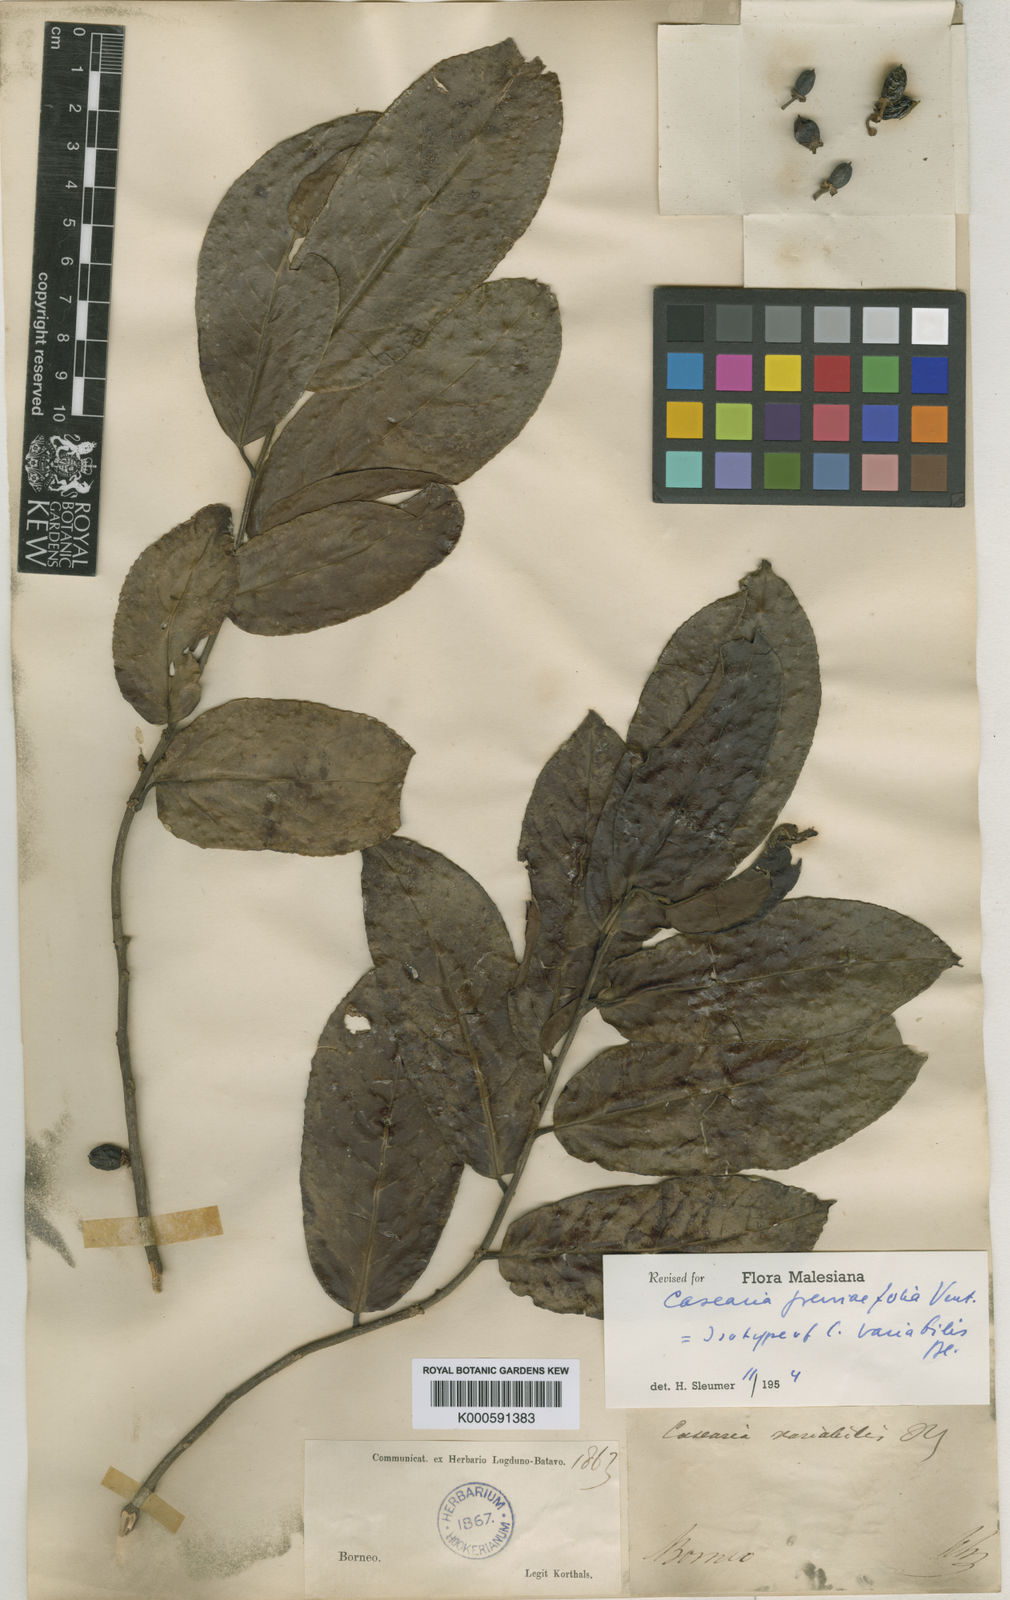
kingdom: Plantae
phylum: Tracheophyta
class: Magnoliopsida
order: Malpighiales
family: Salicaceae
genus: Casearia
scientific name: Casearia grewiifolia
